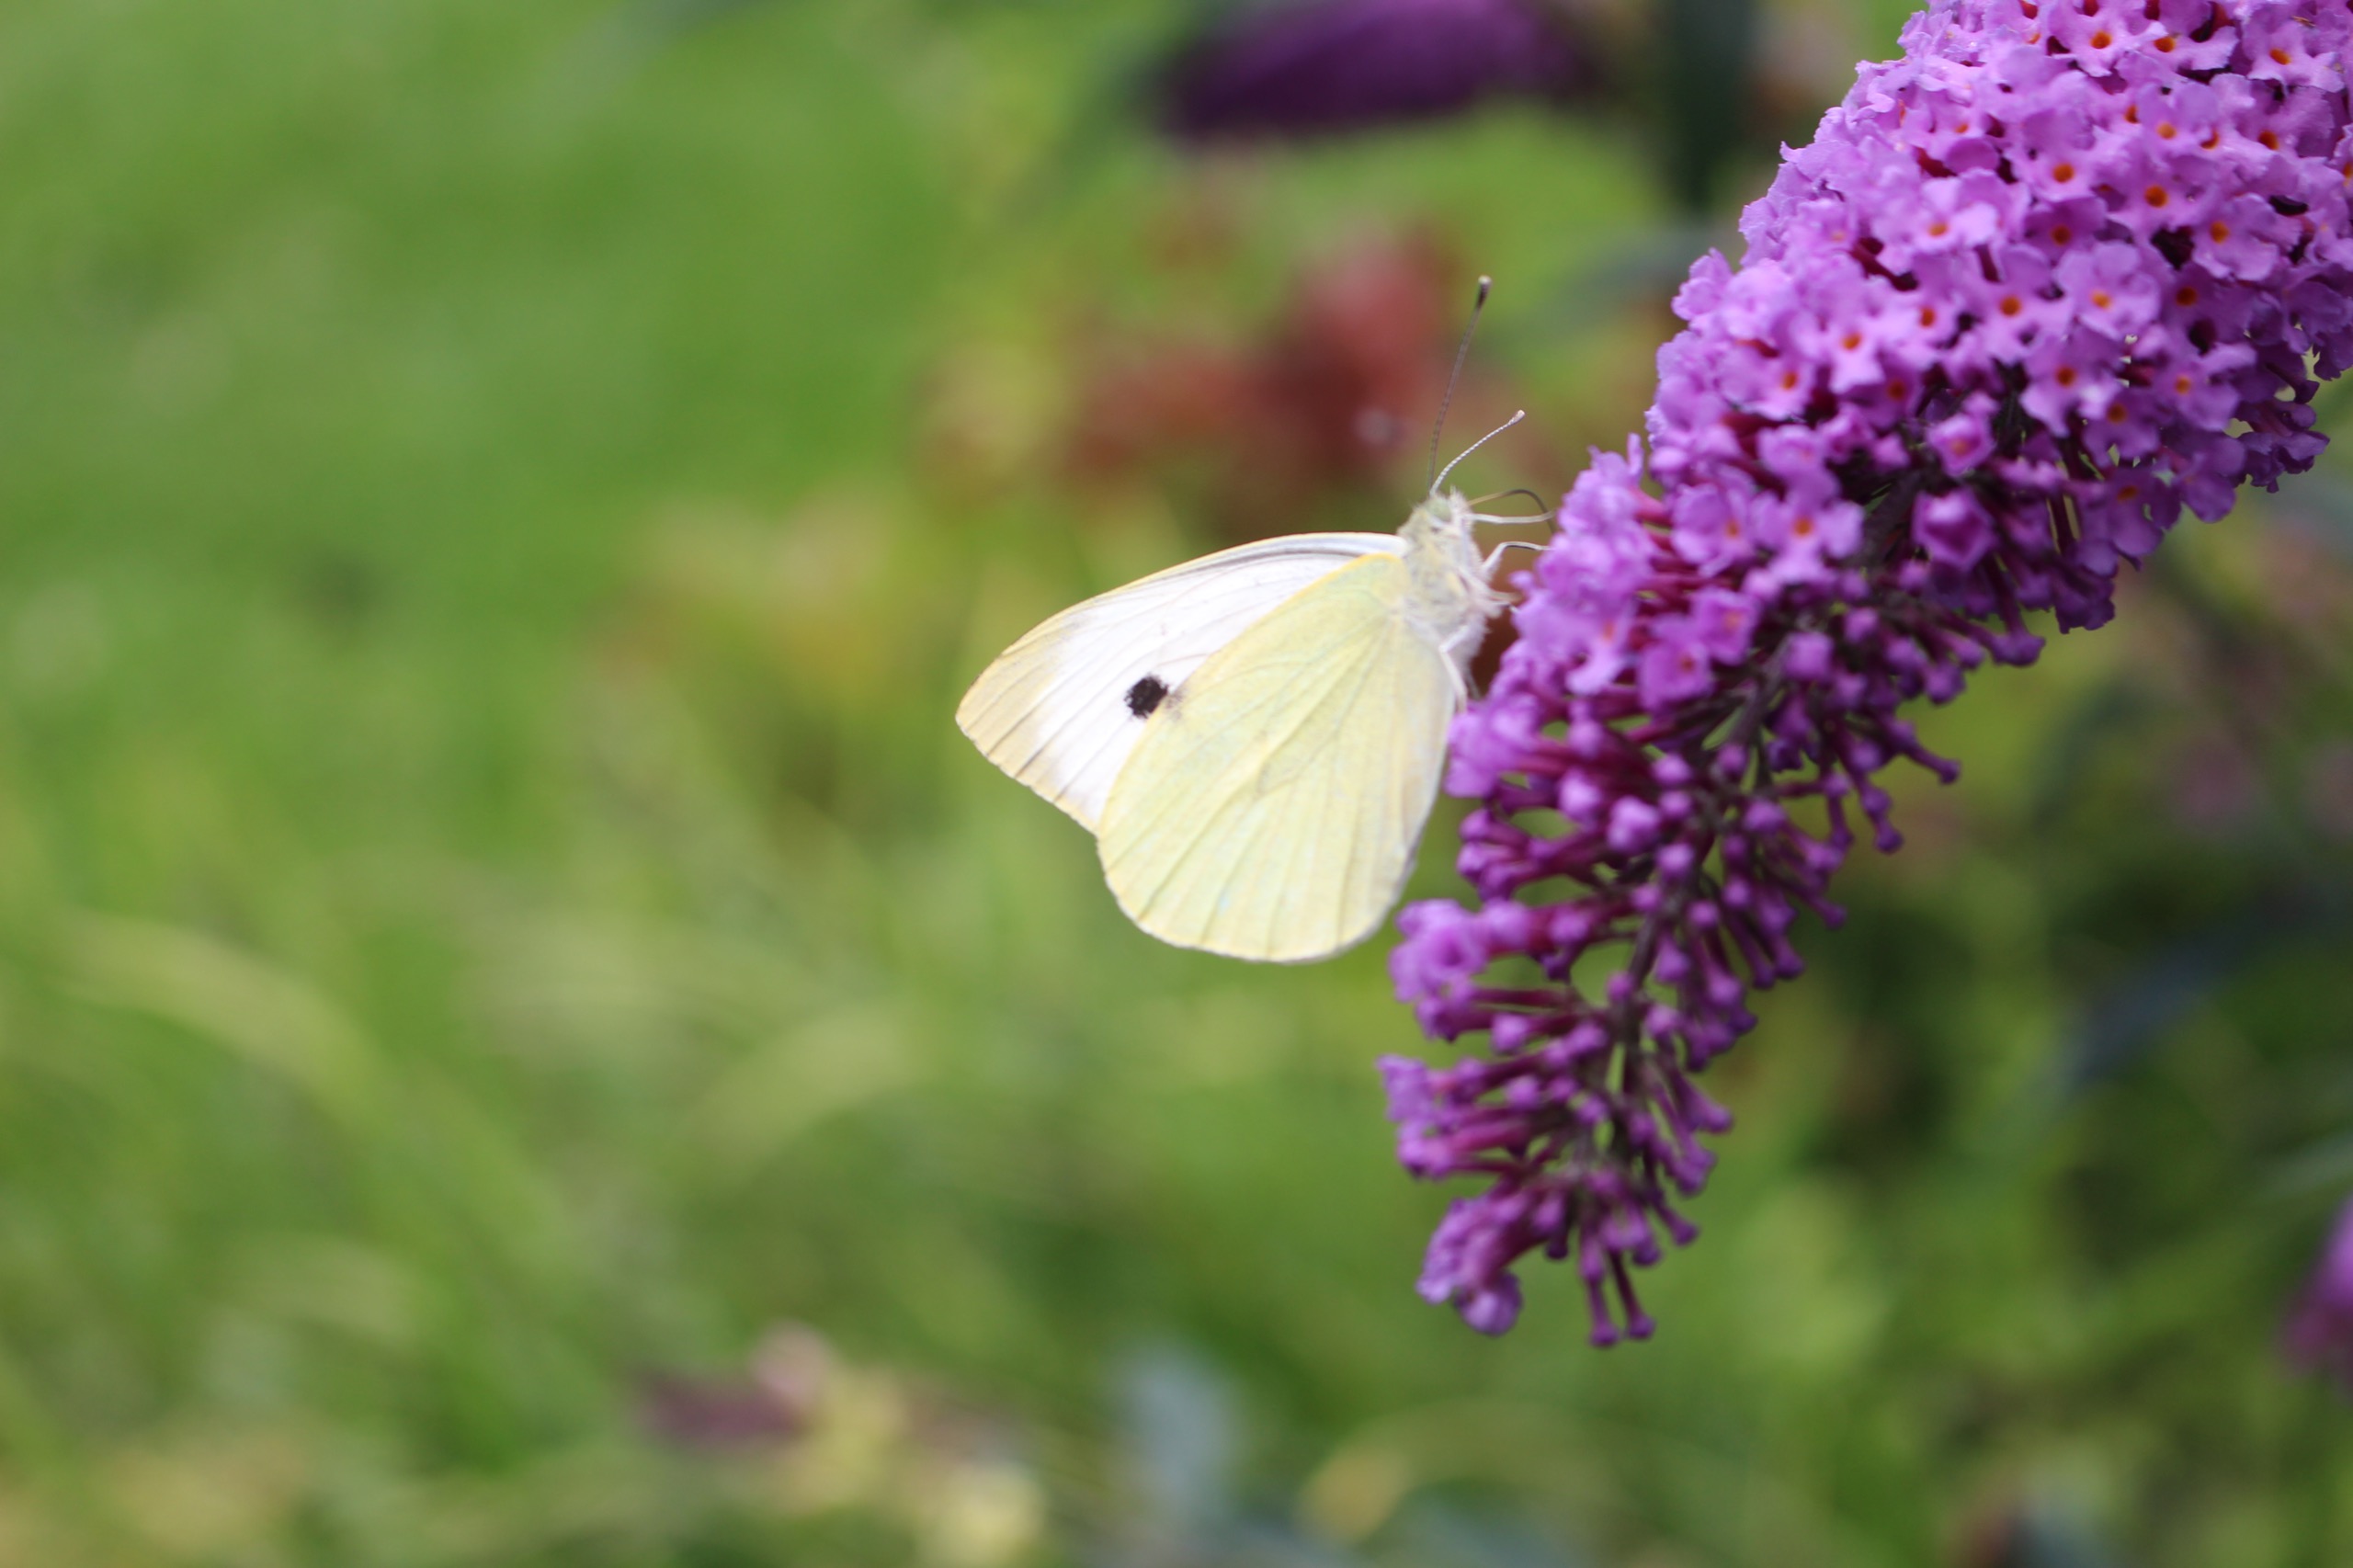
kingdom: Animalia
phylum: Arthropoda
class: Insecta
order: Lepidoptera
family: Pieridae
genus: Pieris
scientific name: Pieris brassicae
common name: Stor kålsommerfugl
